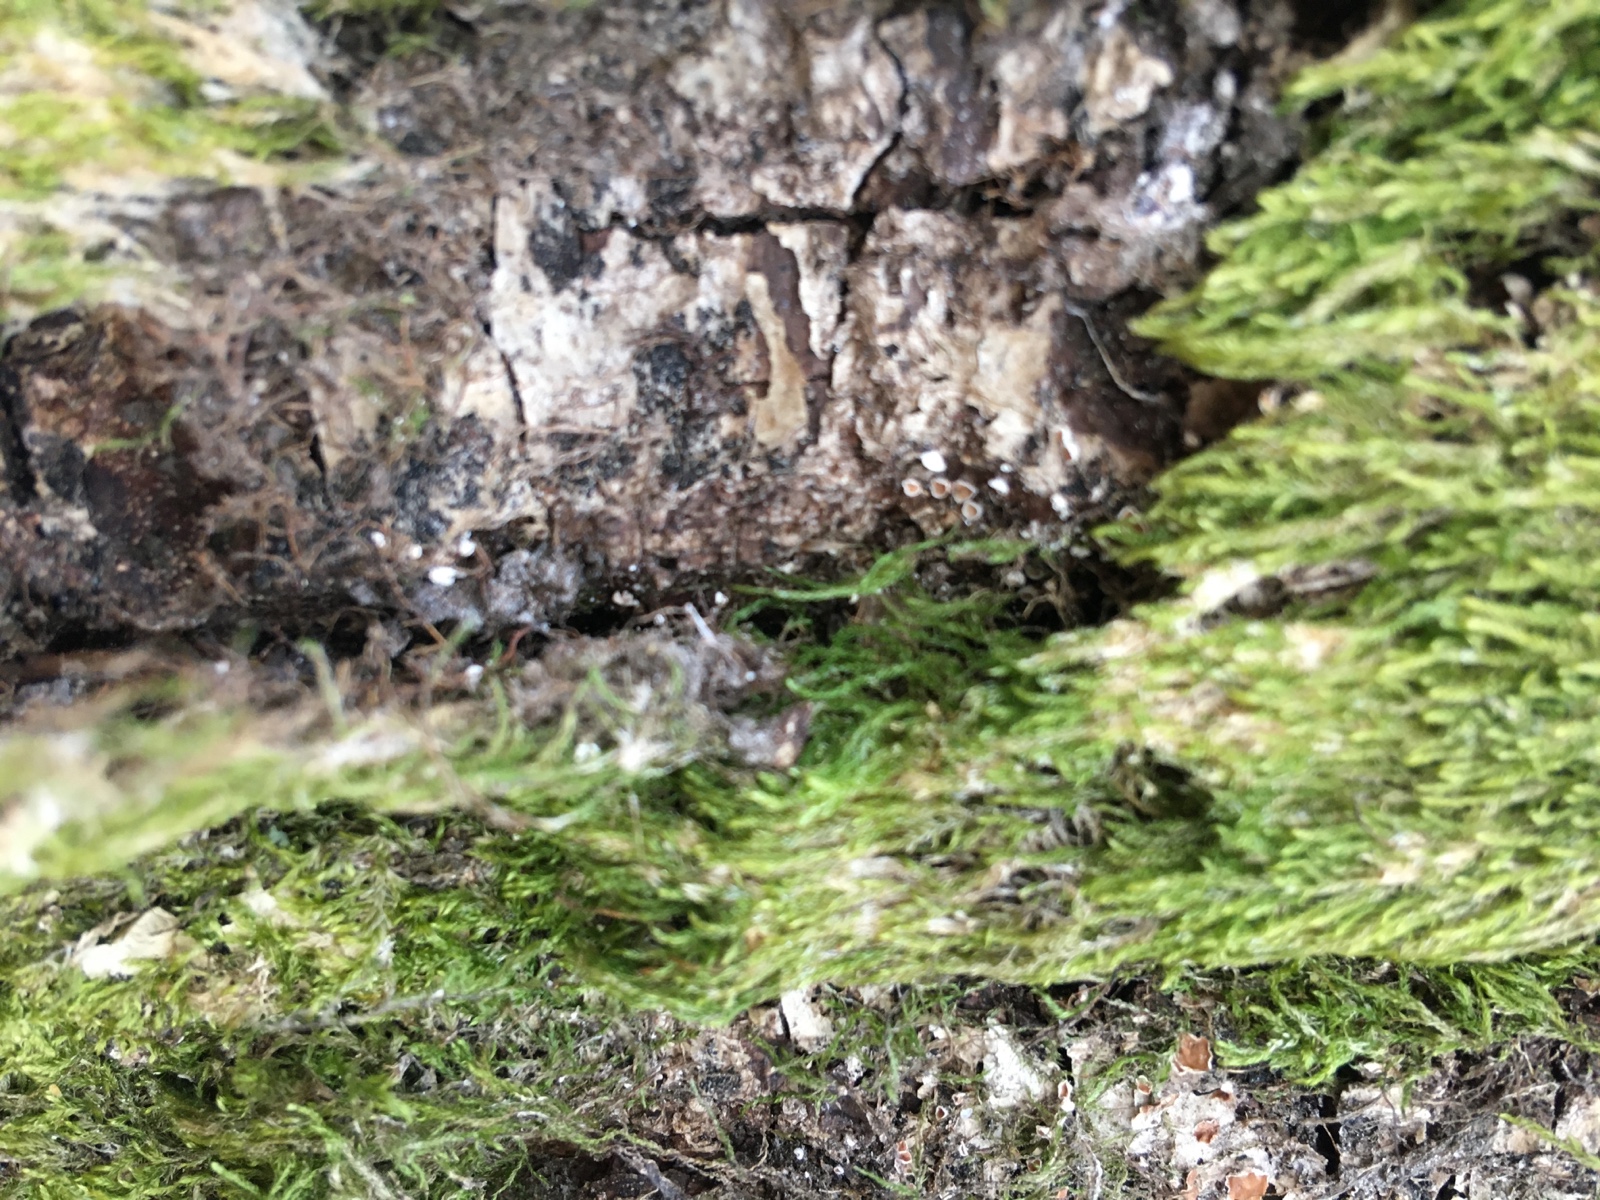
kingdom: Fungi
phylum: Basidiomycota
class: Agaricomycetes
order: Agaricales
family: Chromocyphellaceae
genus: Chromocyphella
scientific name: Chromocyphella muscicola
